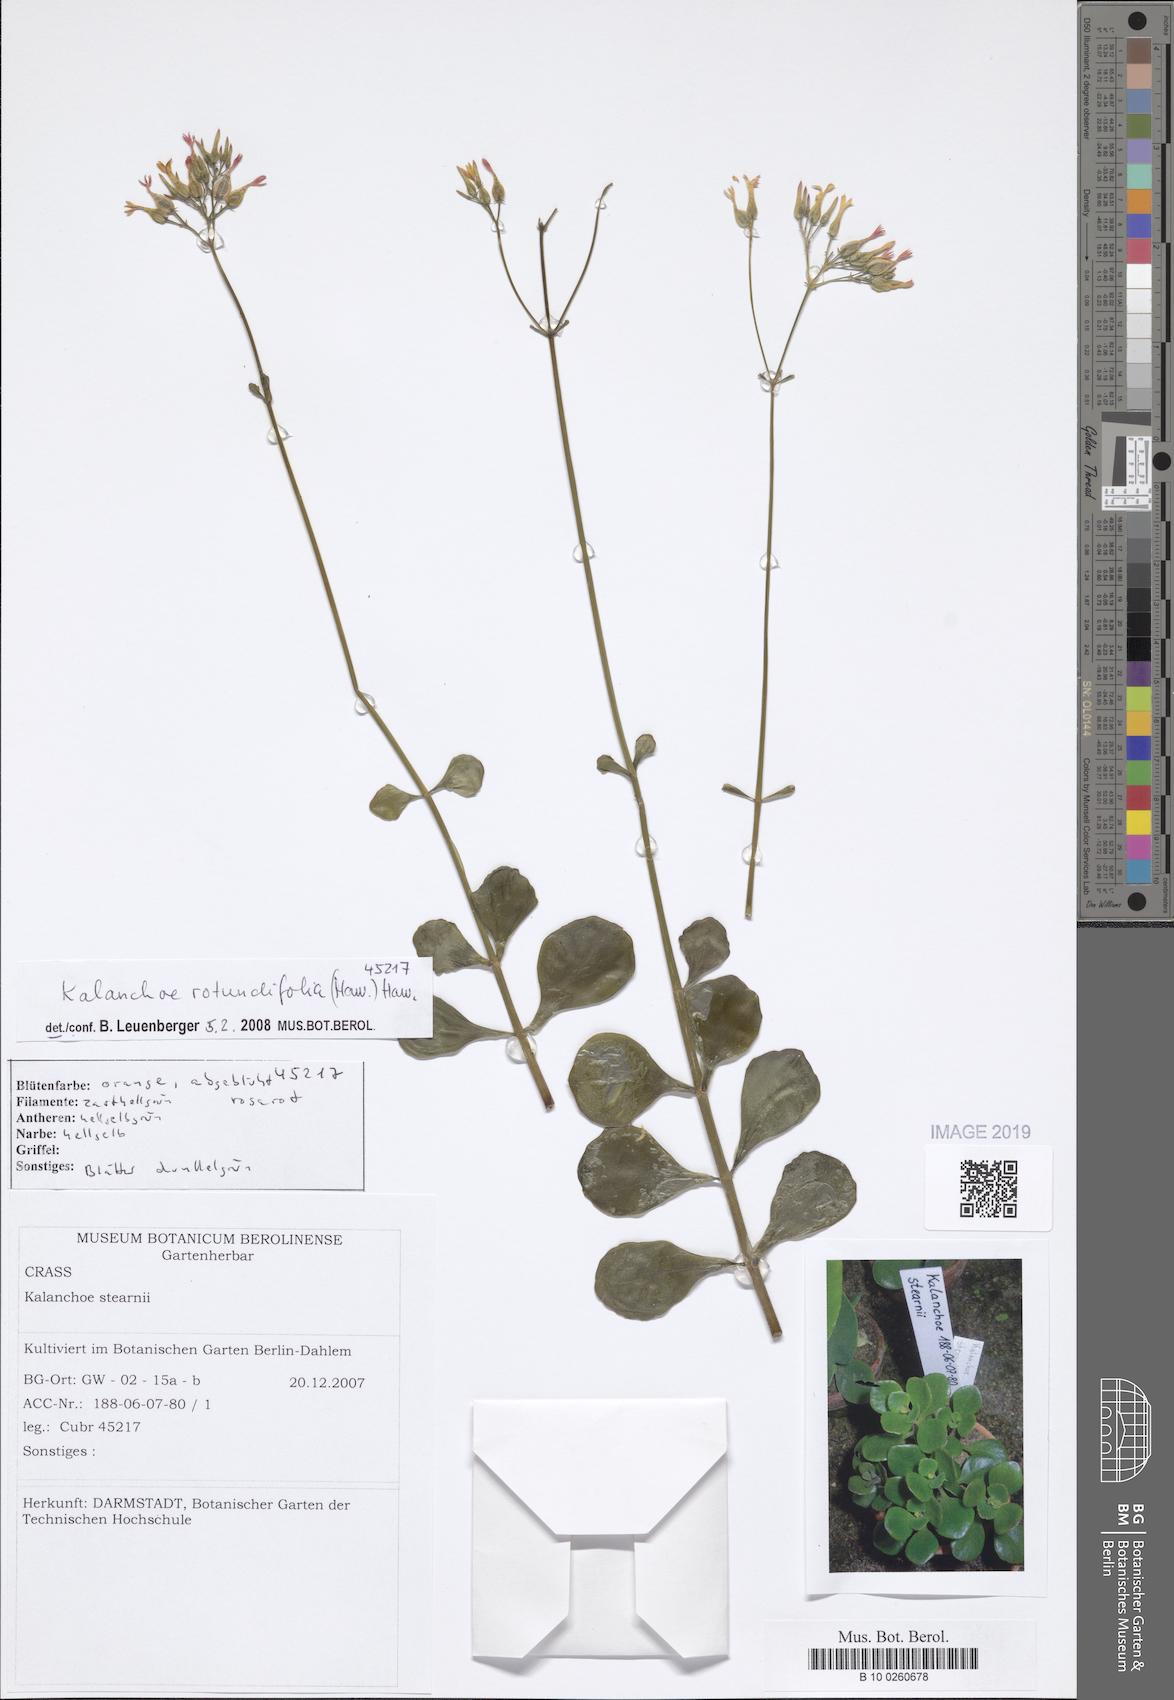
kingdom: Plantae
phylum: Tracheophyta
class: Magnoliopsida
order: Saxifragales
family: Crassulaceae
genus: Kalanchoe
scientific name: Kalanchoe rotundifolia
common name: Common kalanchoe
